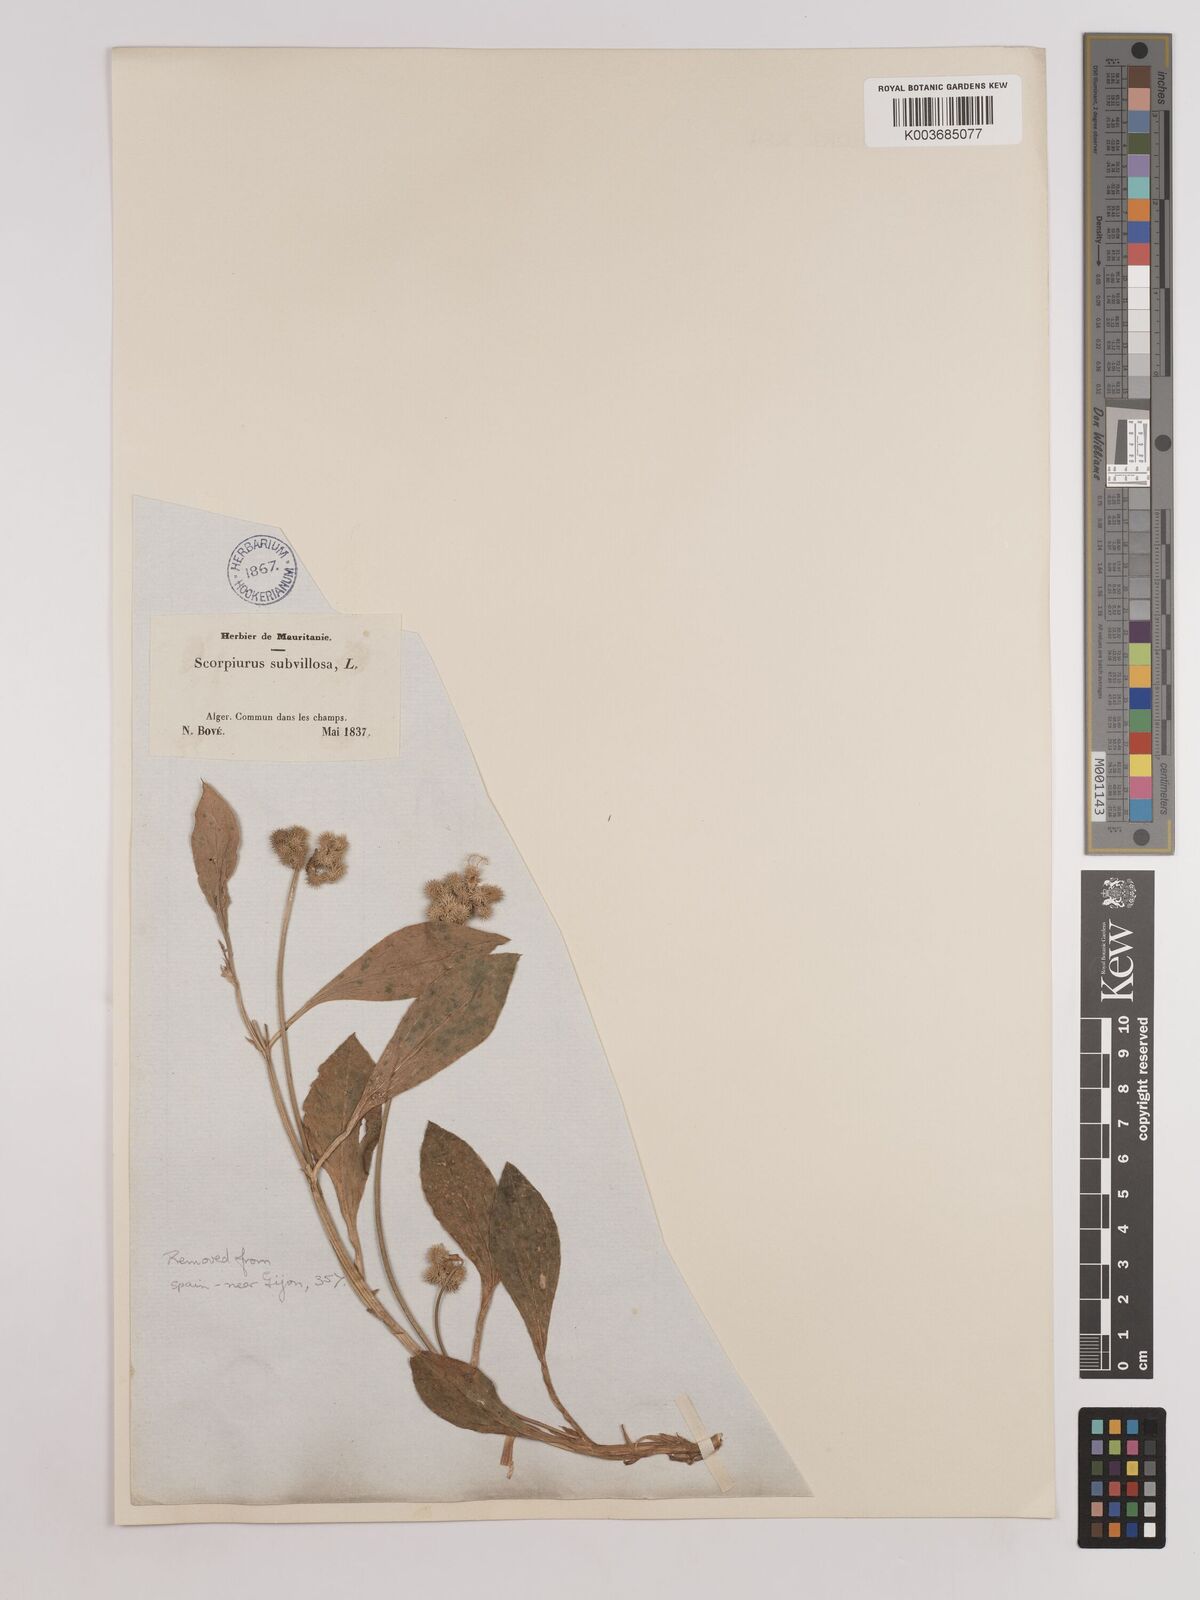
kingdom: Plantae
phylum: Tracheophyta
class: Magnoliopsida
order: Fabales
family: Fabaceae
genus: Scorpiurus
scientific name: Scorpiurus muricatus
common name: Caterpillar-plant
